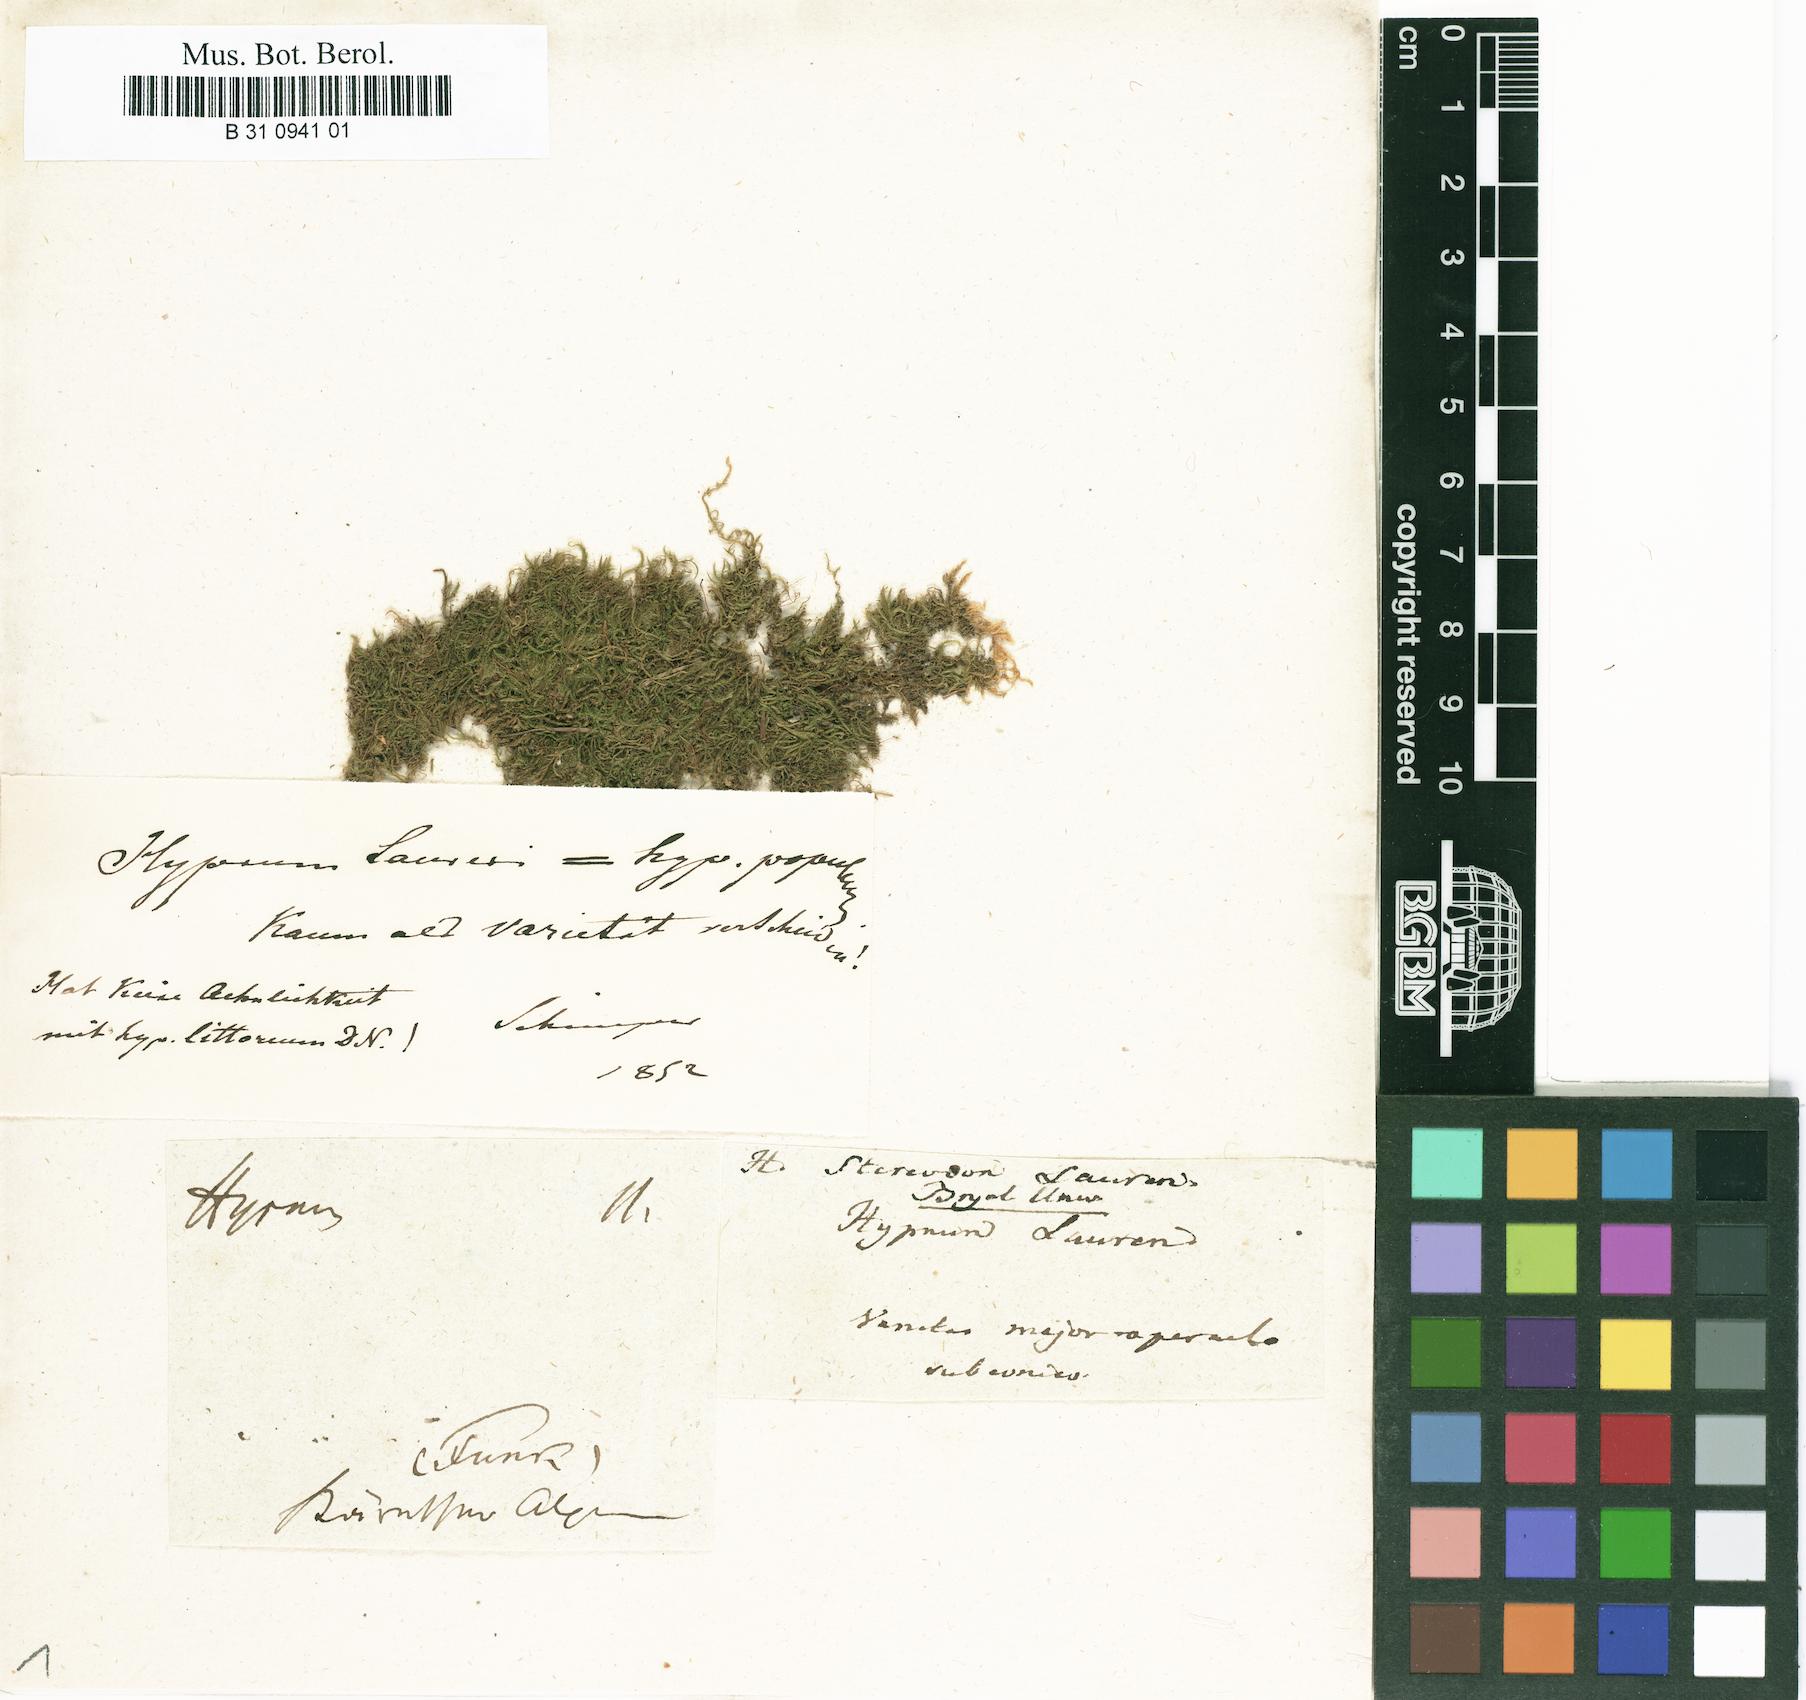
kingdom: Plantae
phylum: Bryophyta
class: Bryopsida
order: Hypnales
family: Brachytheciaceae
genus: Sciuro-hypnum
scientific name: Sciuro-hypnum populeum
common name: Matted feather-moss
